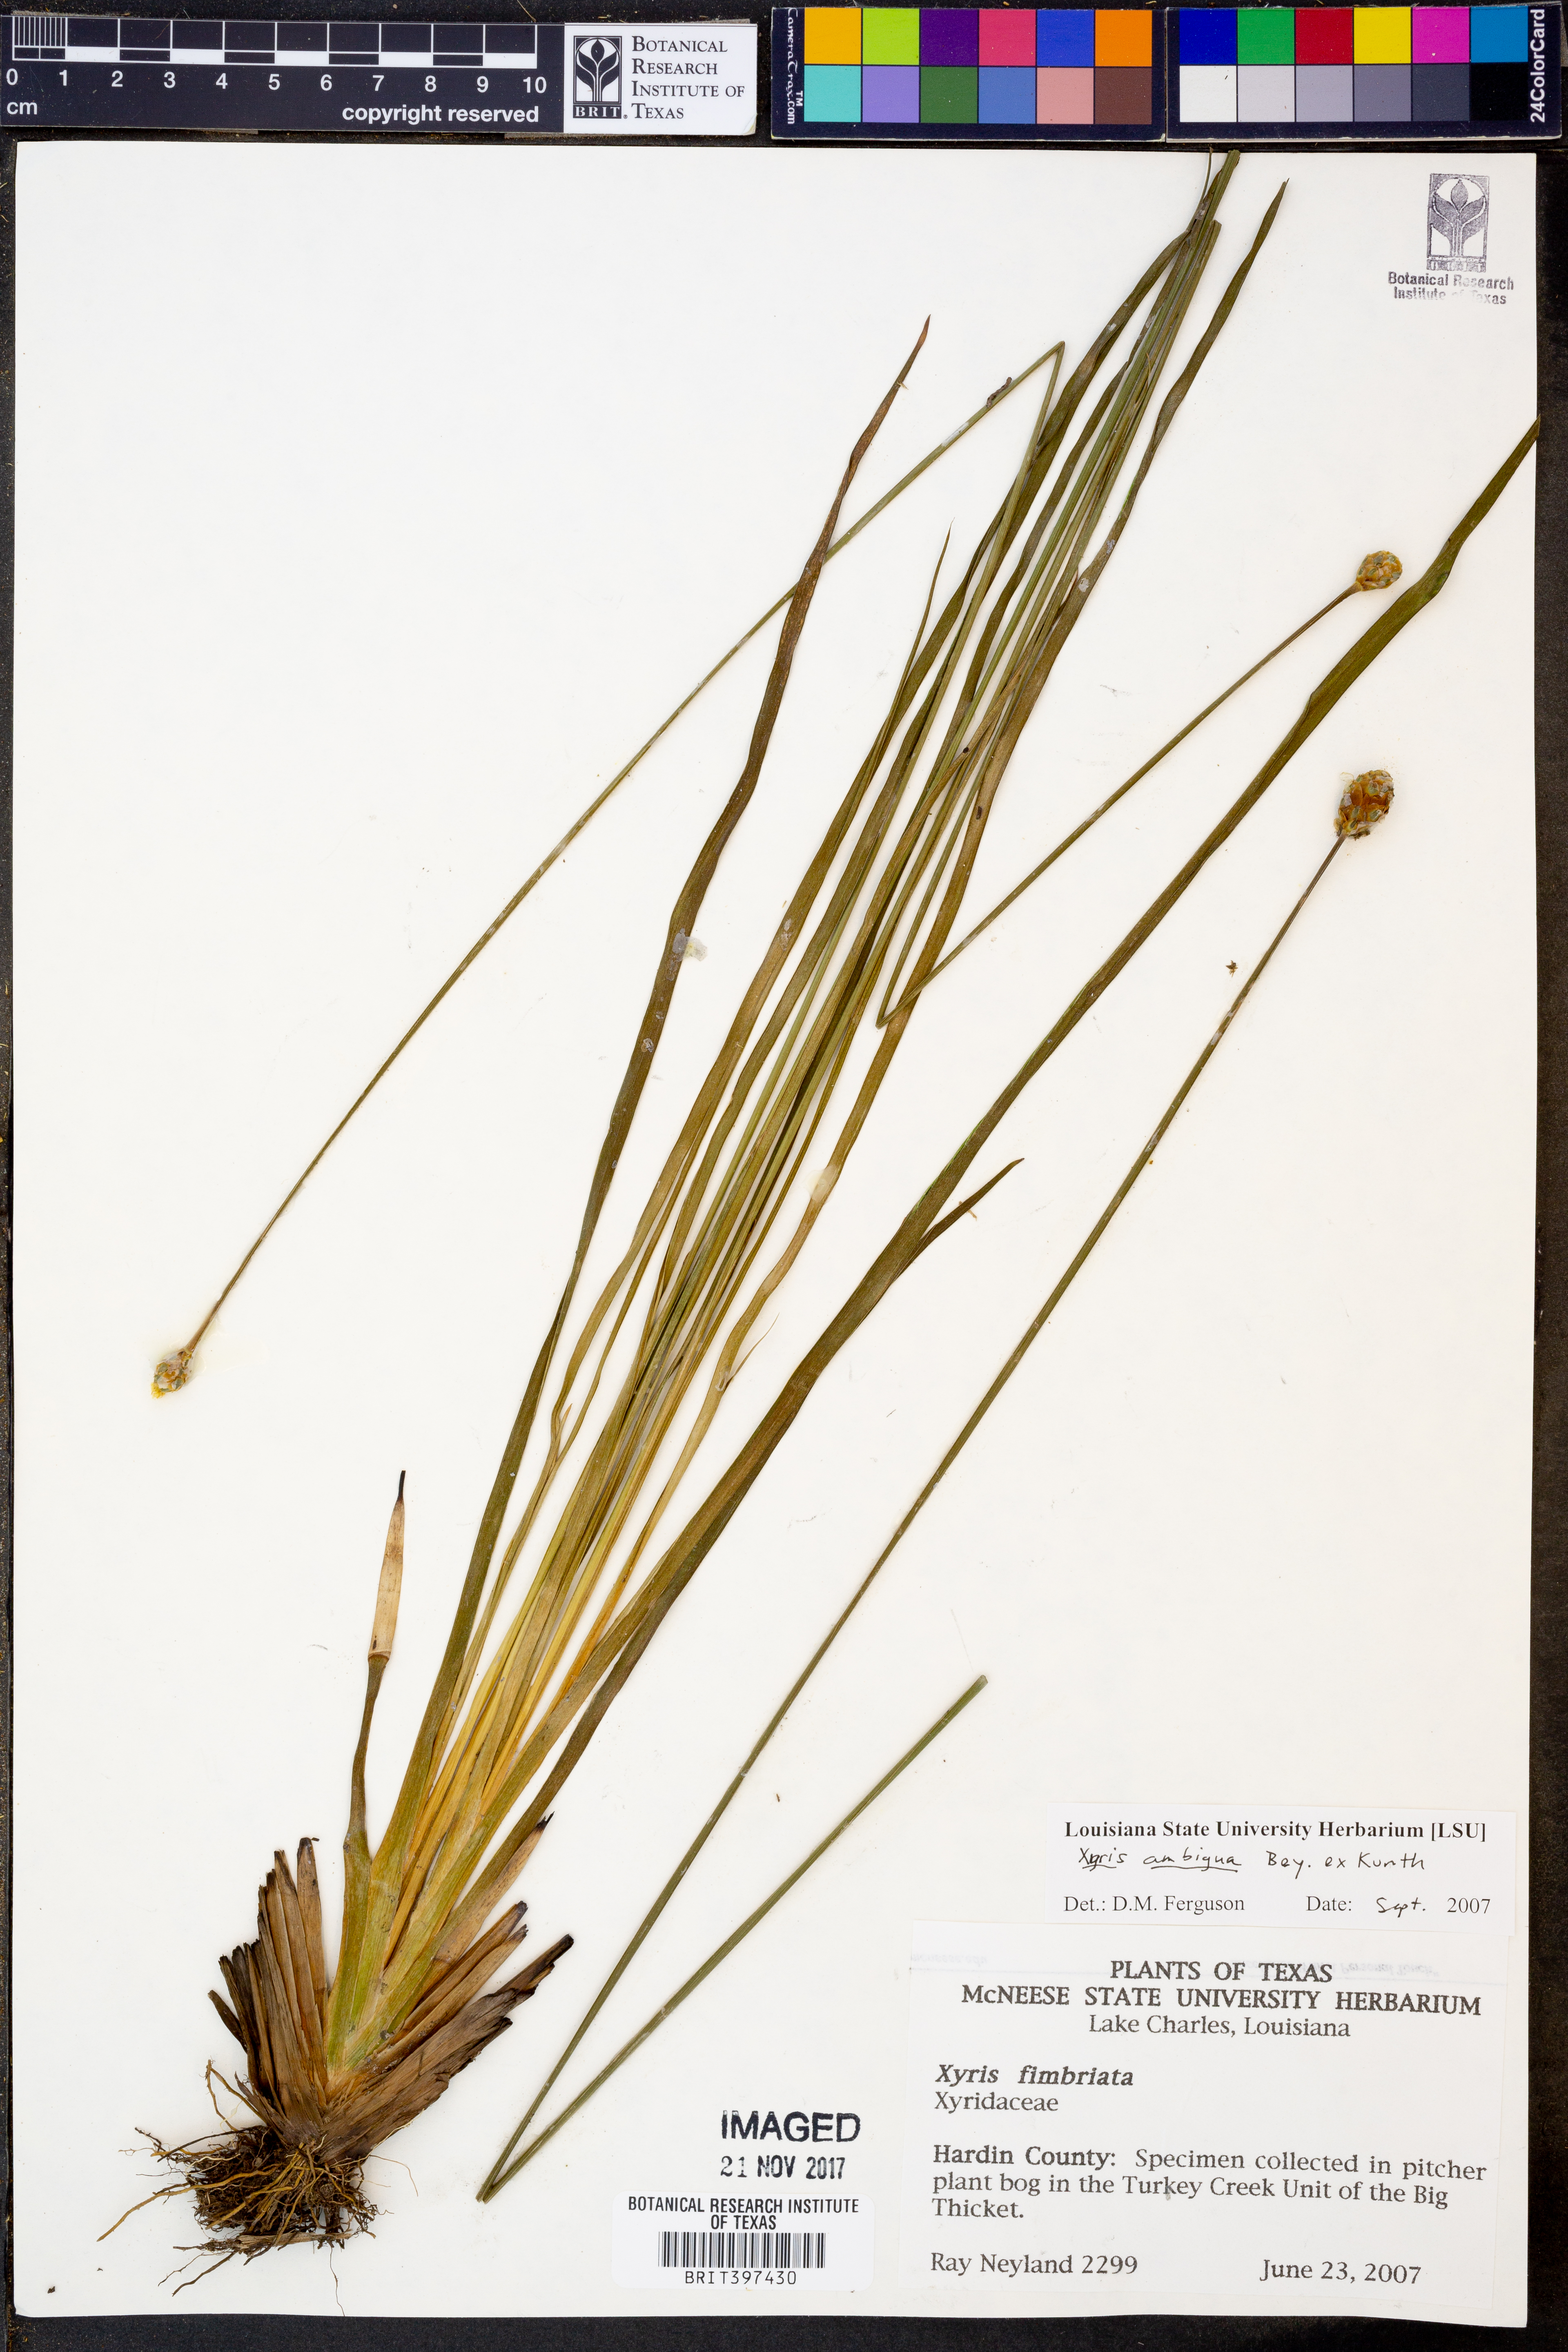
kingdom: Plantae
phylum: Tracheophyta
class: Liliopsida
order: Poales
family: Xyridaceae
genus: Xyris
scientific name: Xyris ambigua
